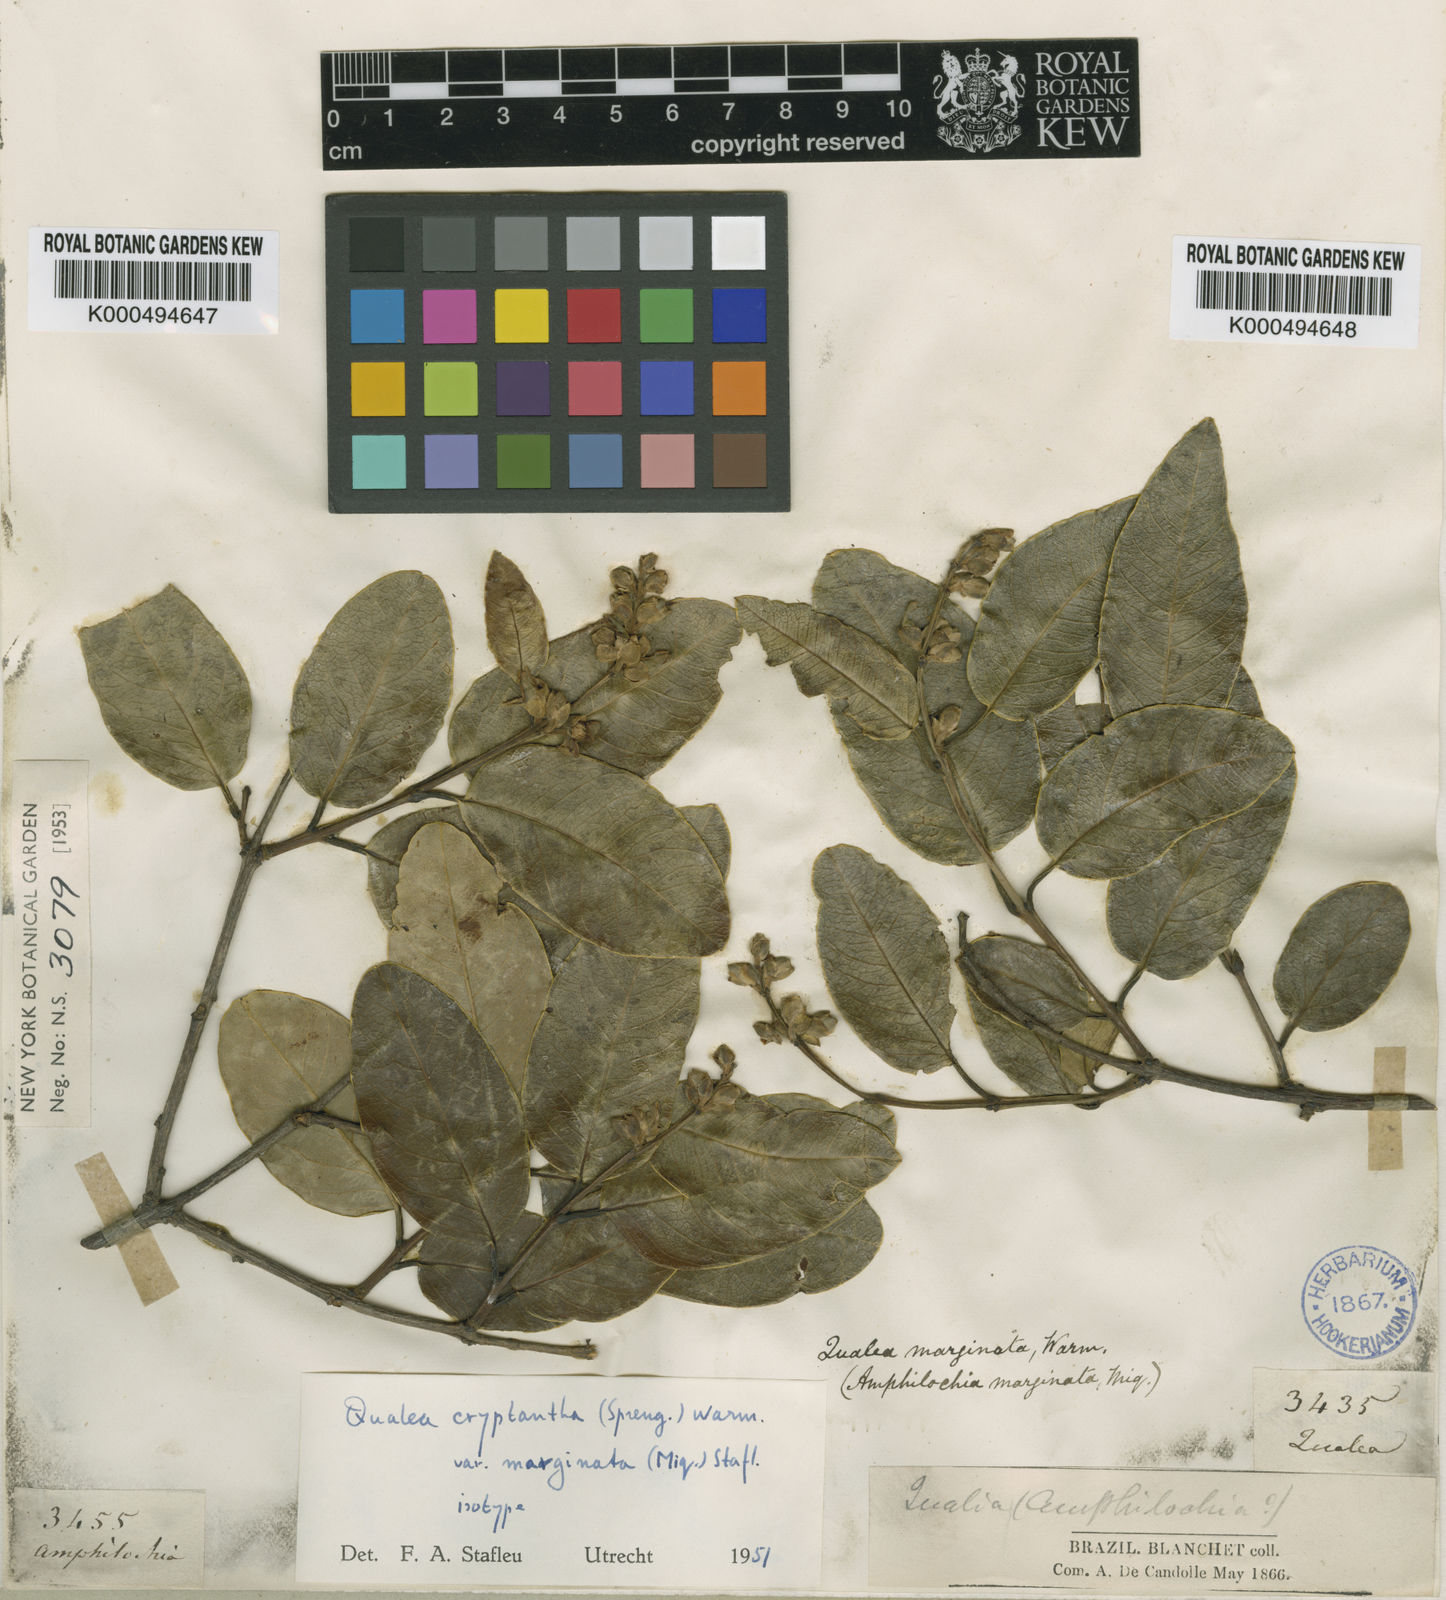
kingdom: Plantae
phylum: Tracheophyta
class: Magnoliopsida
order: Myrtales
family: Vochysiaceae
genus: Qualea
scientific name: Qualea cryptantha
